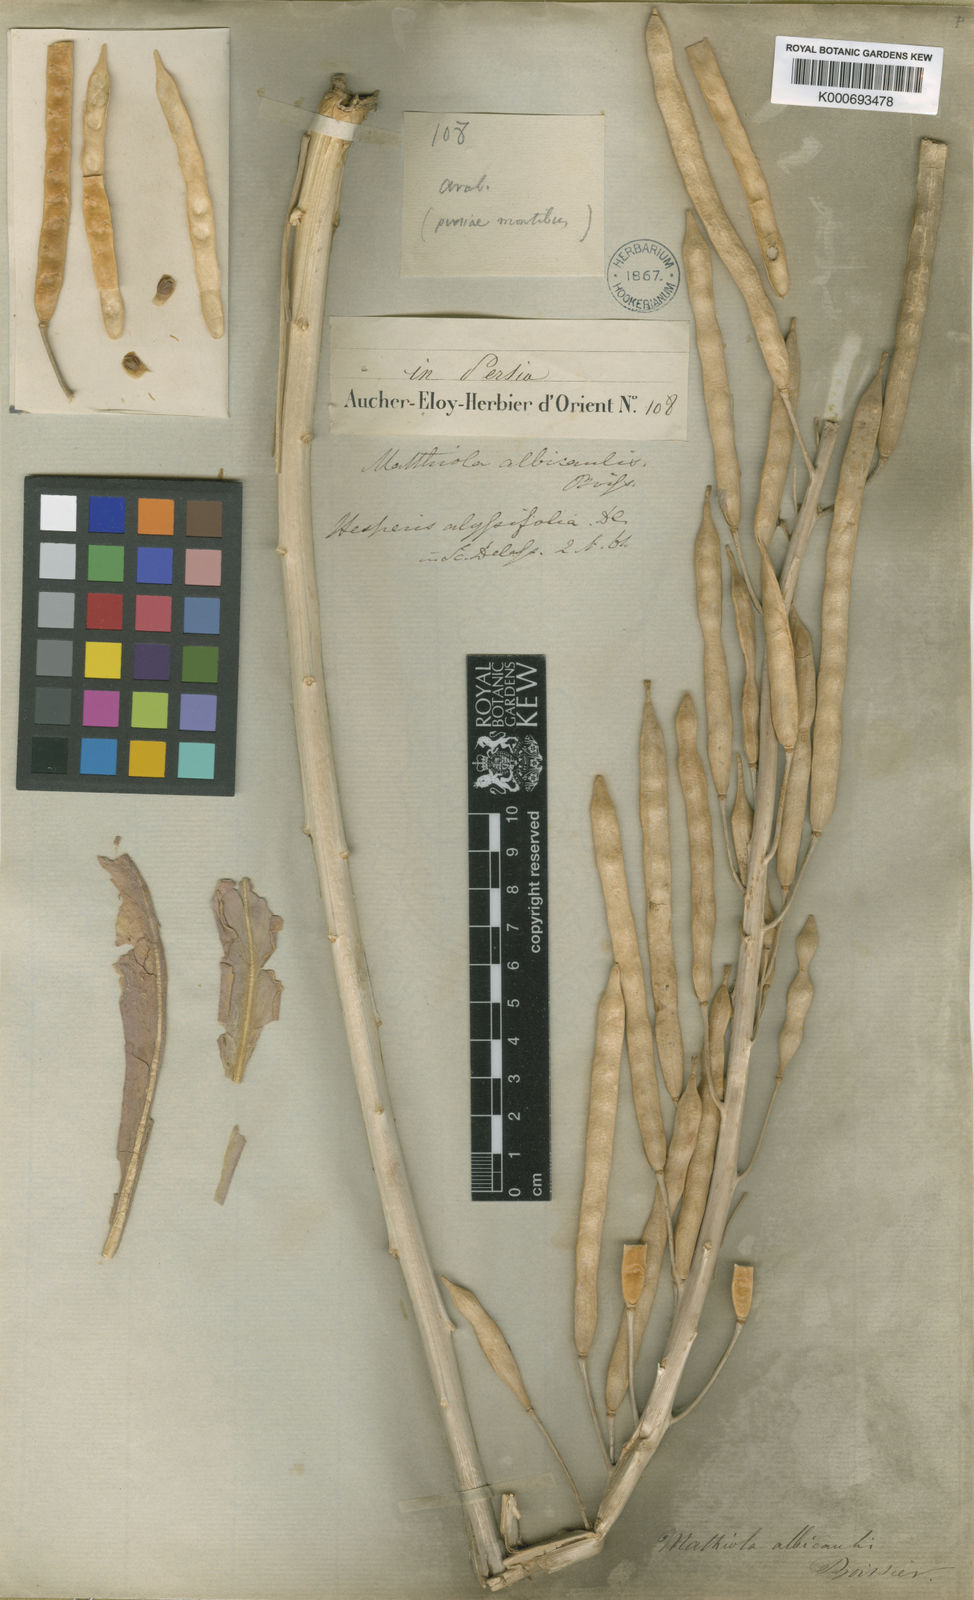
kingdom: Plantae
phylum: Tracheophyta
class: Magnoliopsida
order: Brassicales
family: Brassicaceae
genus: Matthiola
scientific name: Matthiola alyssifolia
